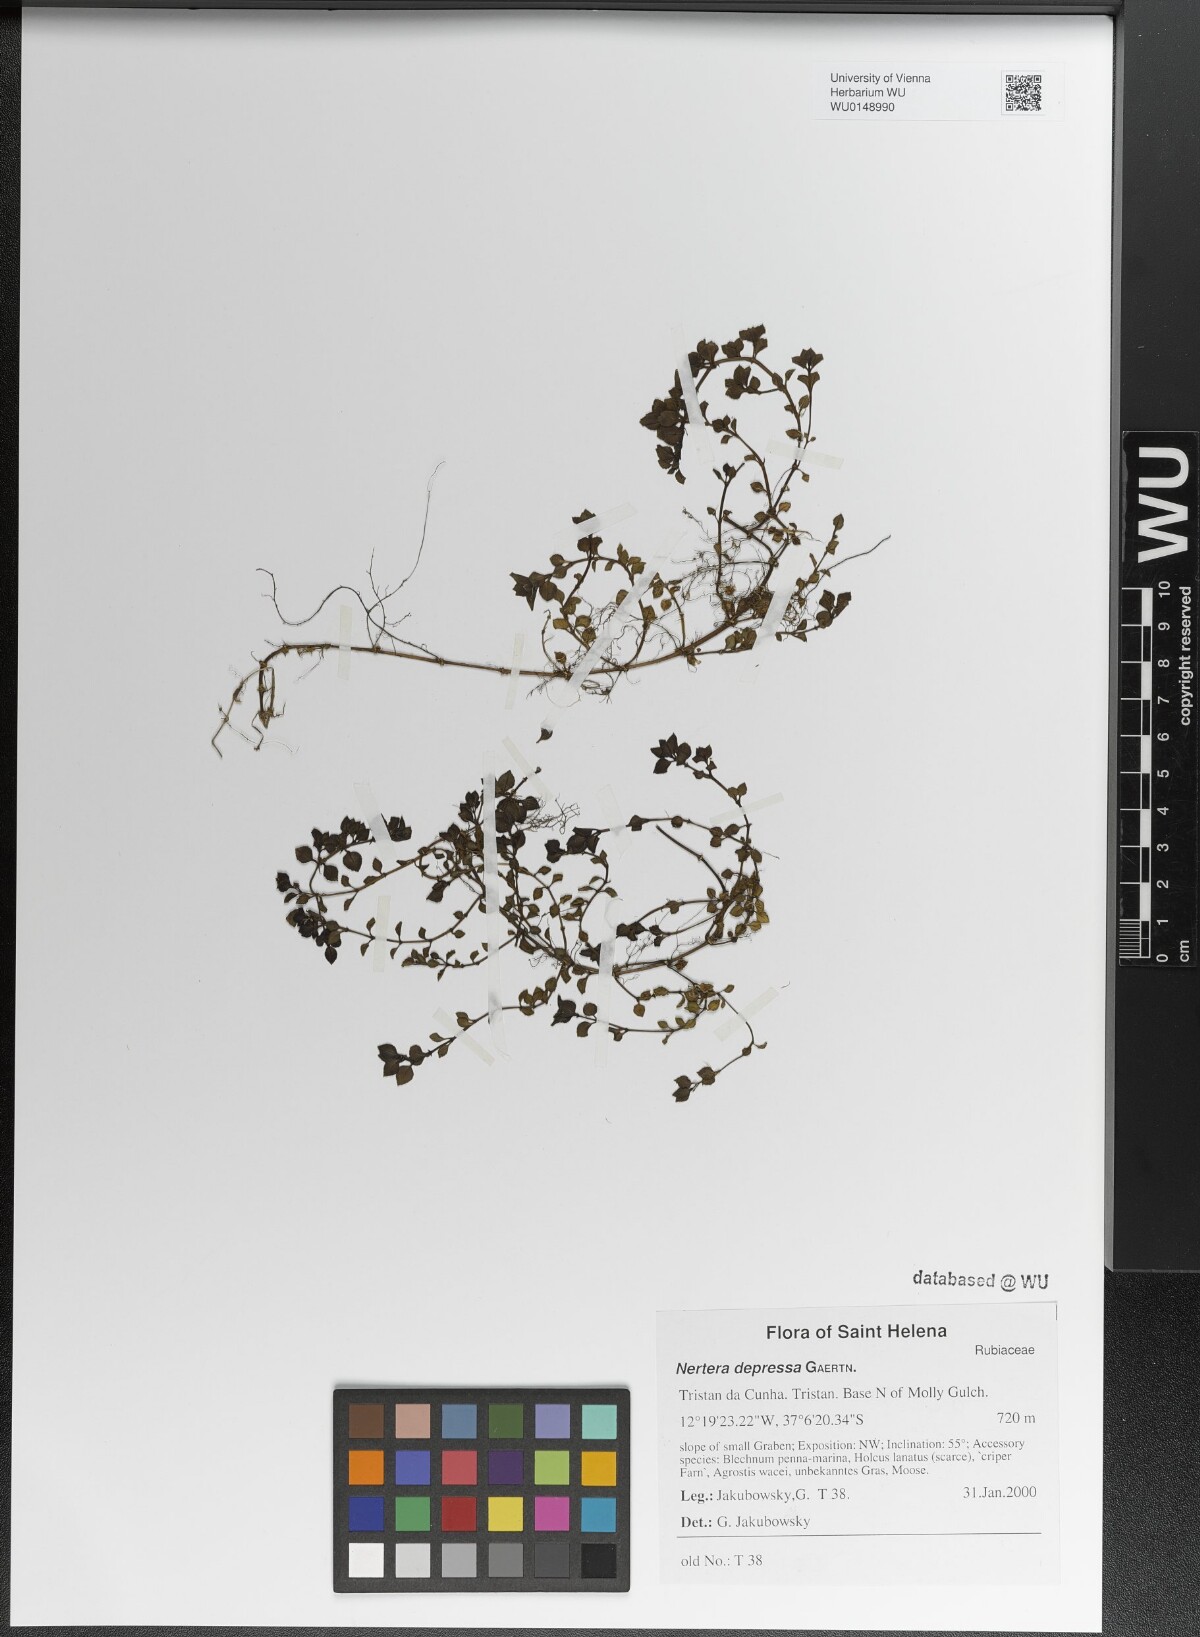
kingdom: Plantae
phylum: Tracheophyta
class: Magnoliopsida
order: Gentianales
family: Rubiaceae
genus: Nertera
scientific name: Nertera granadensis
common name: Beadplant
